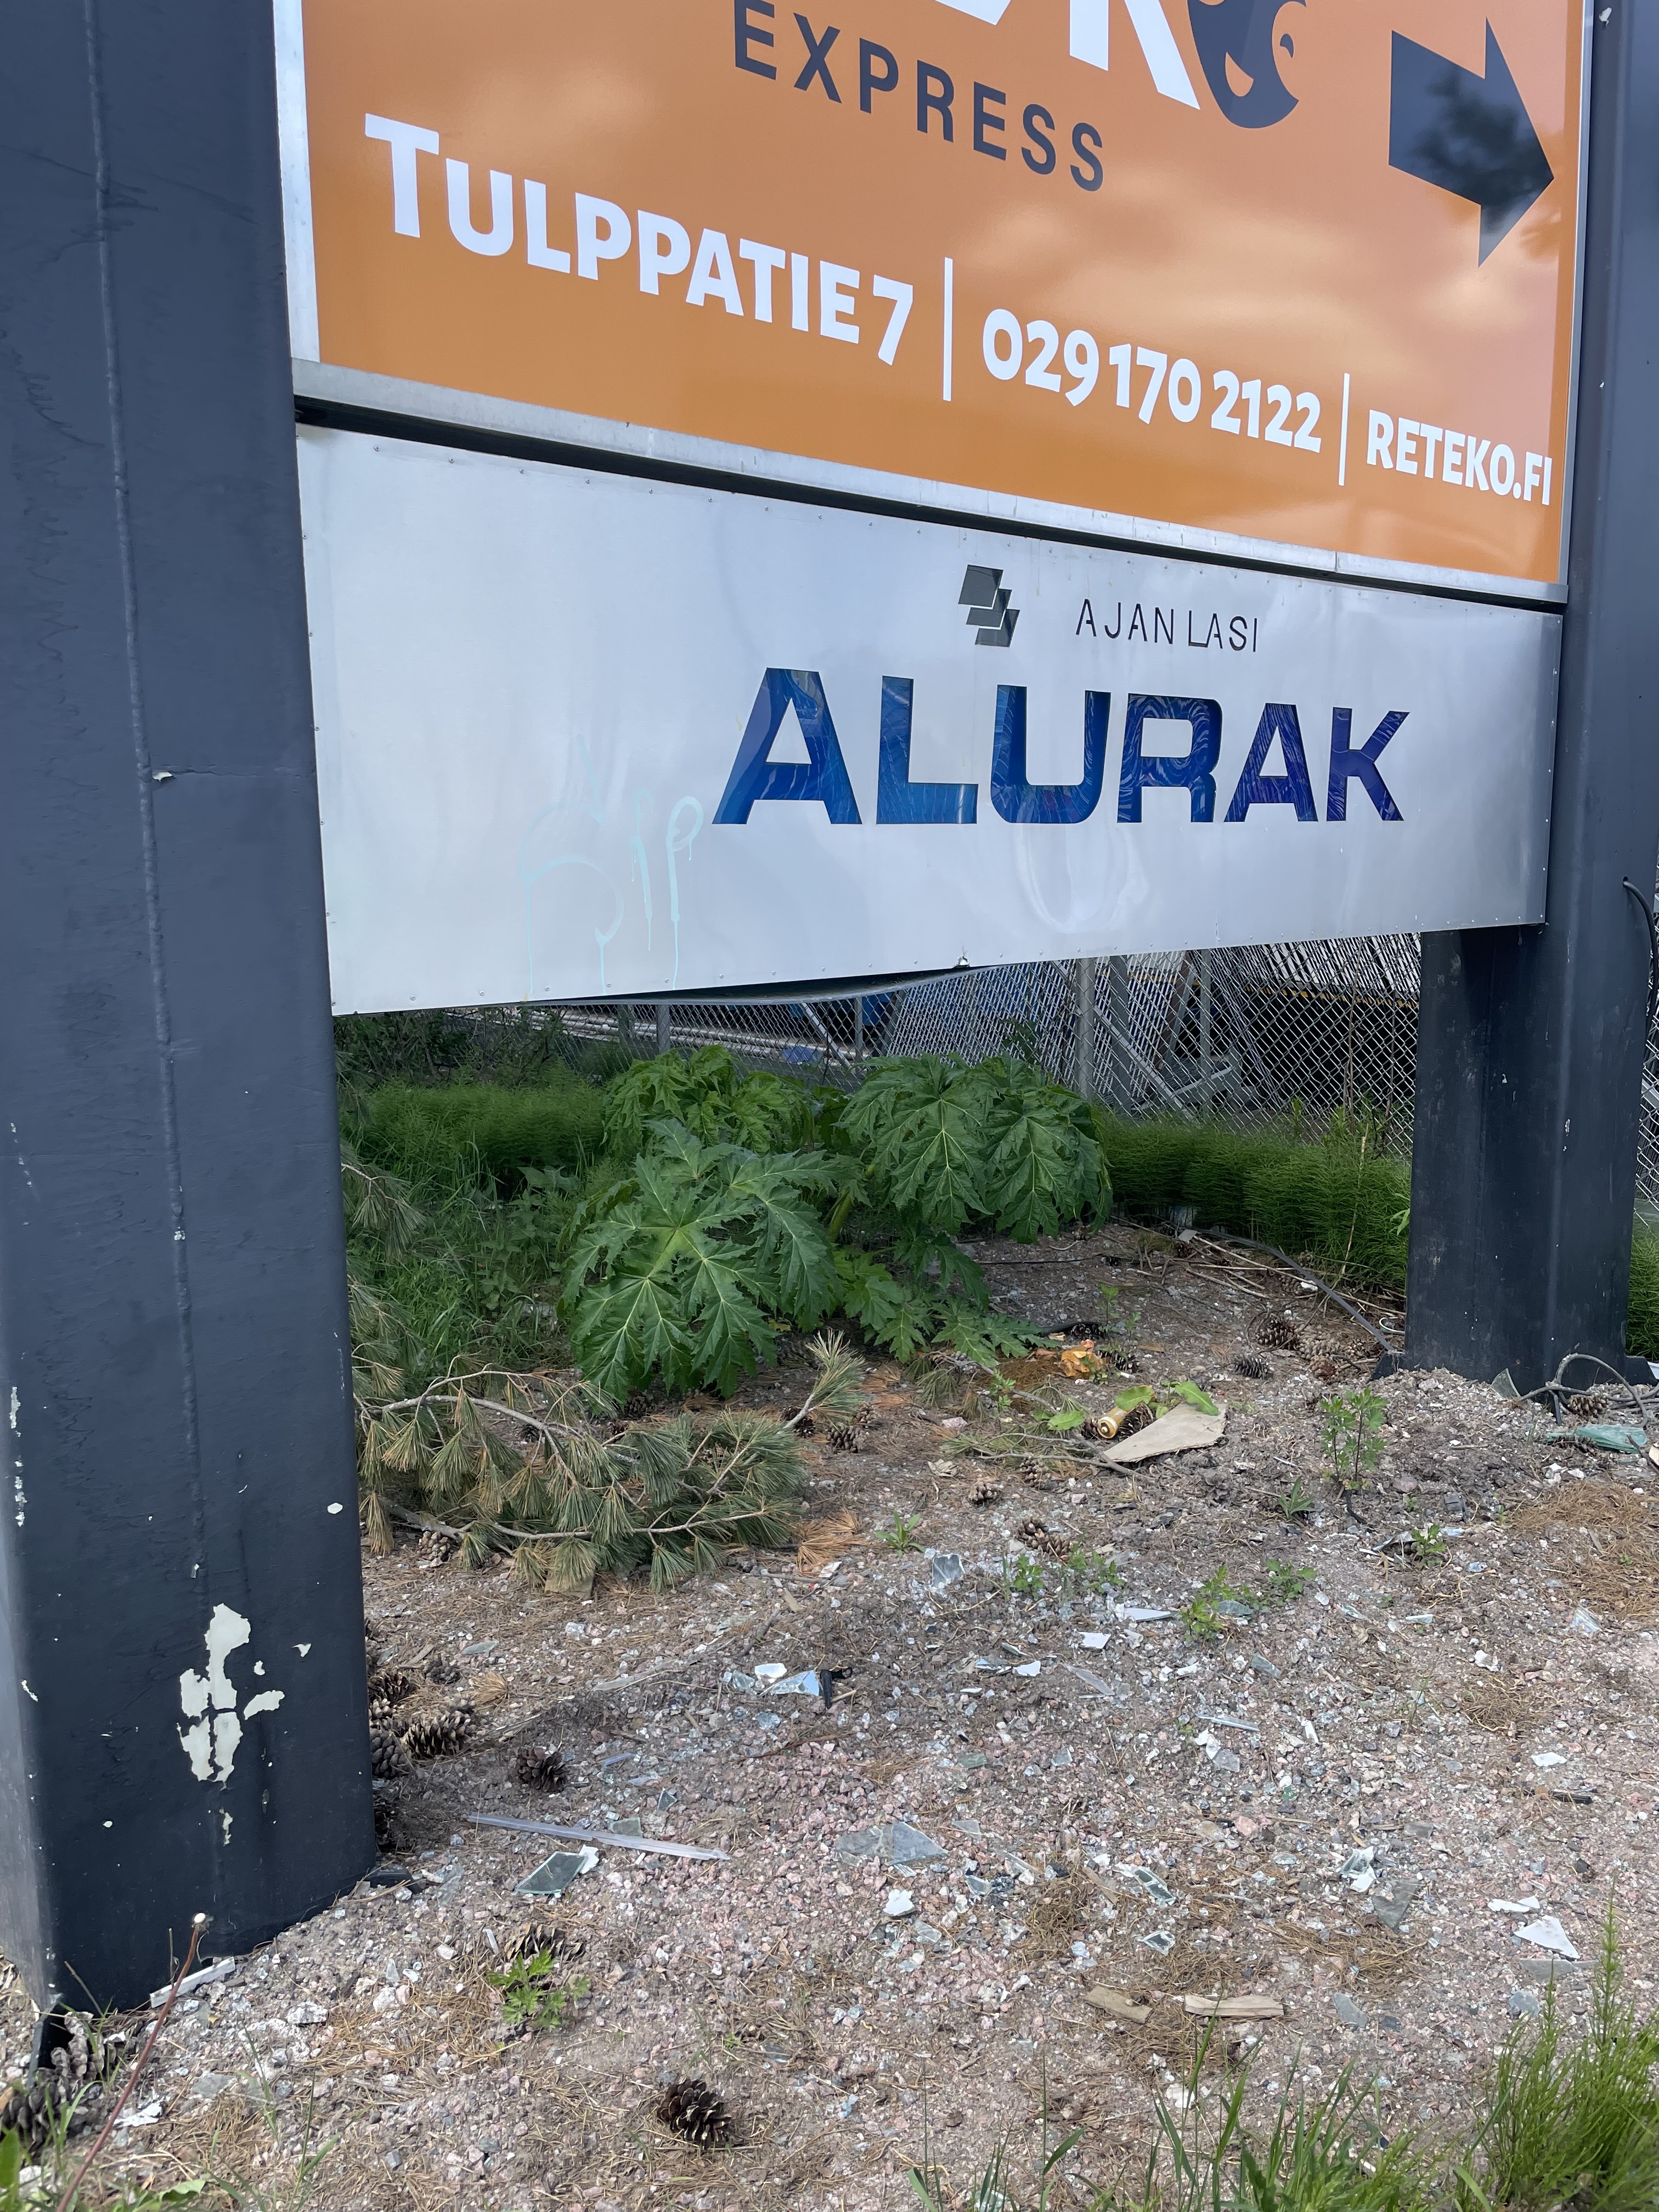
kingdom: Plantae
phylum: Tracheophyta
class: Magnoliopsida
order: Apiales
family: Apiaceae
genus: Heracleum
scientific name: Heracleum
